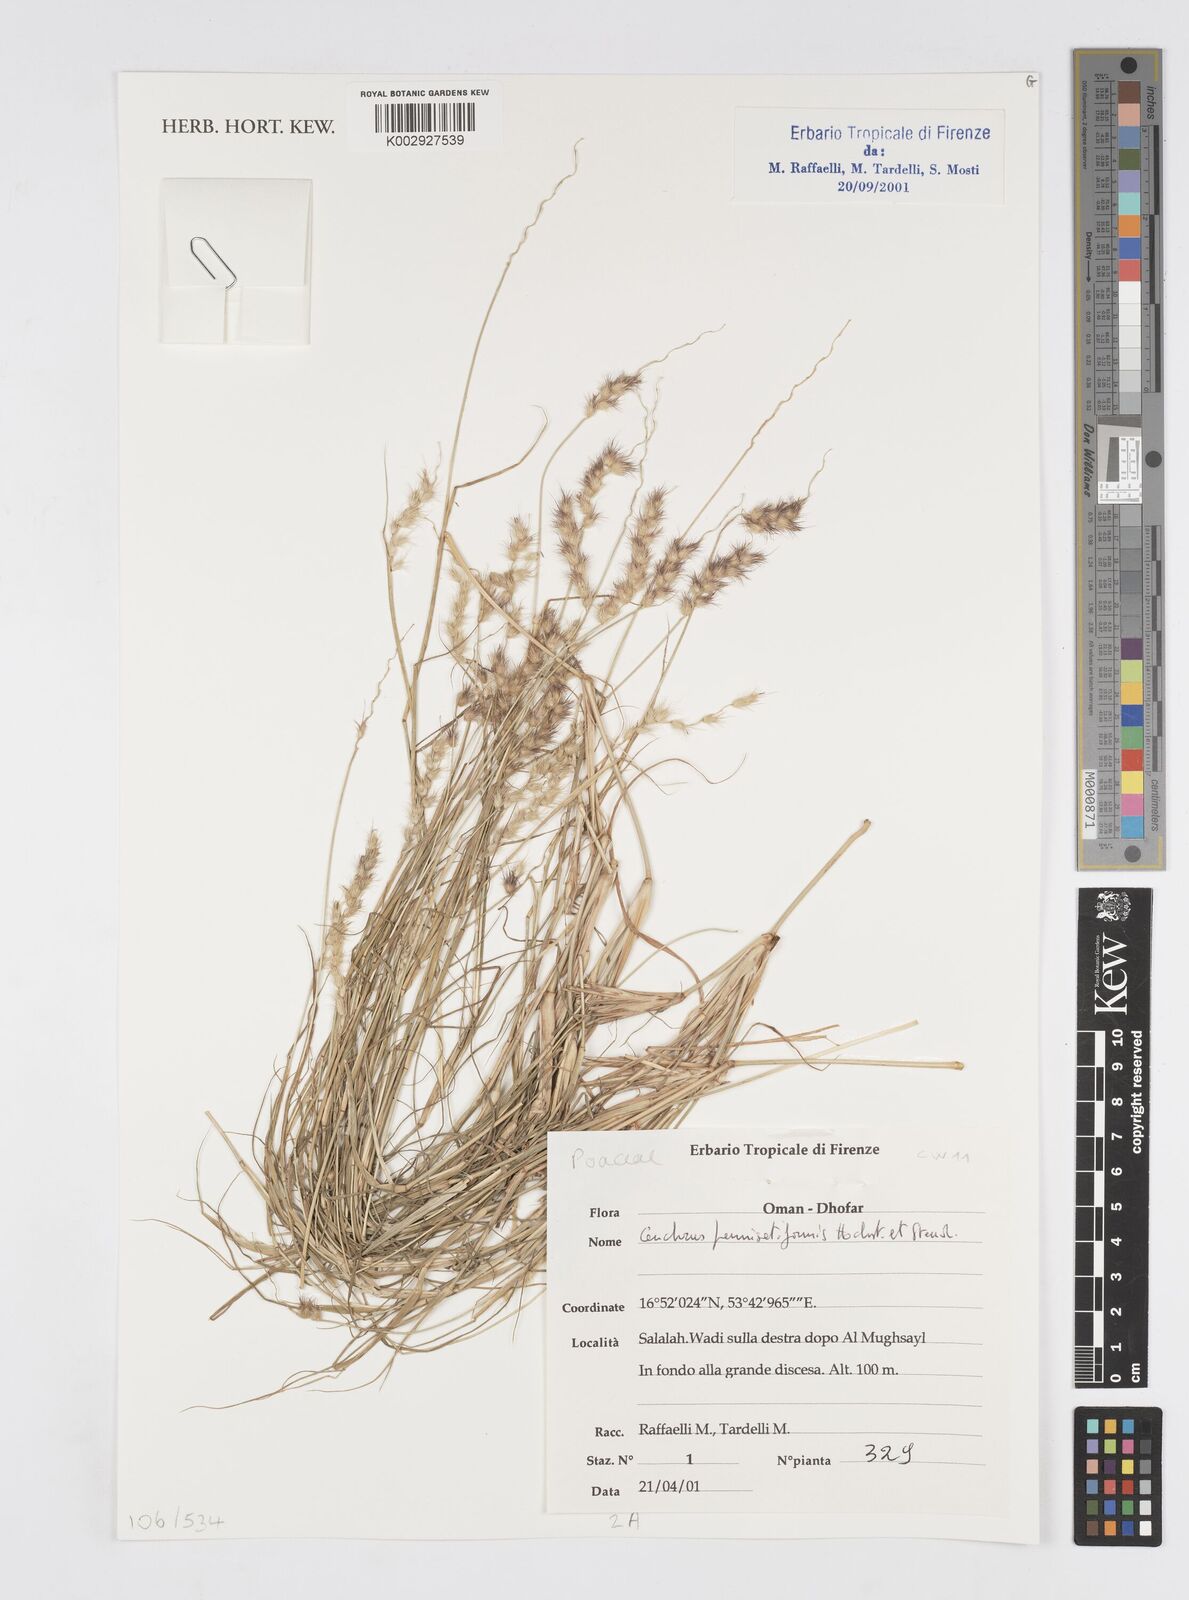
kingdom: Plantae
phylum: Tracheophyta
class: Liliopsida
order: Poales
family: Poaceae
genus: Cenchrus
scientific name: Cenchrus pennisetiformis
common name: Cloncurry
